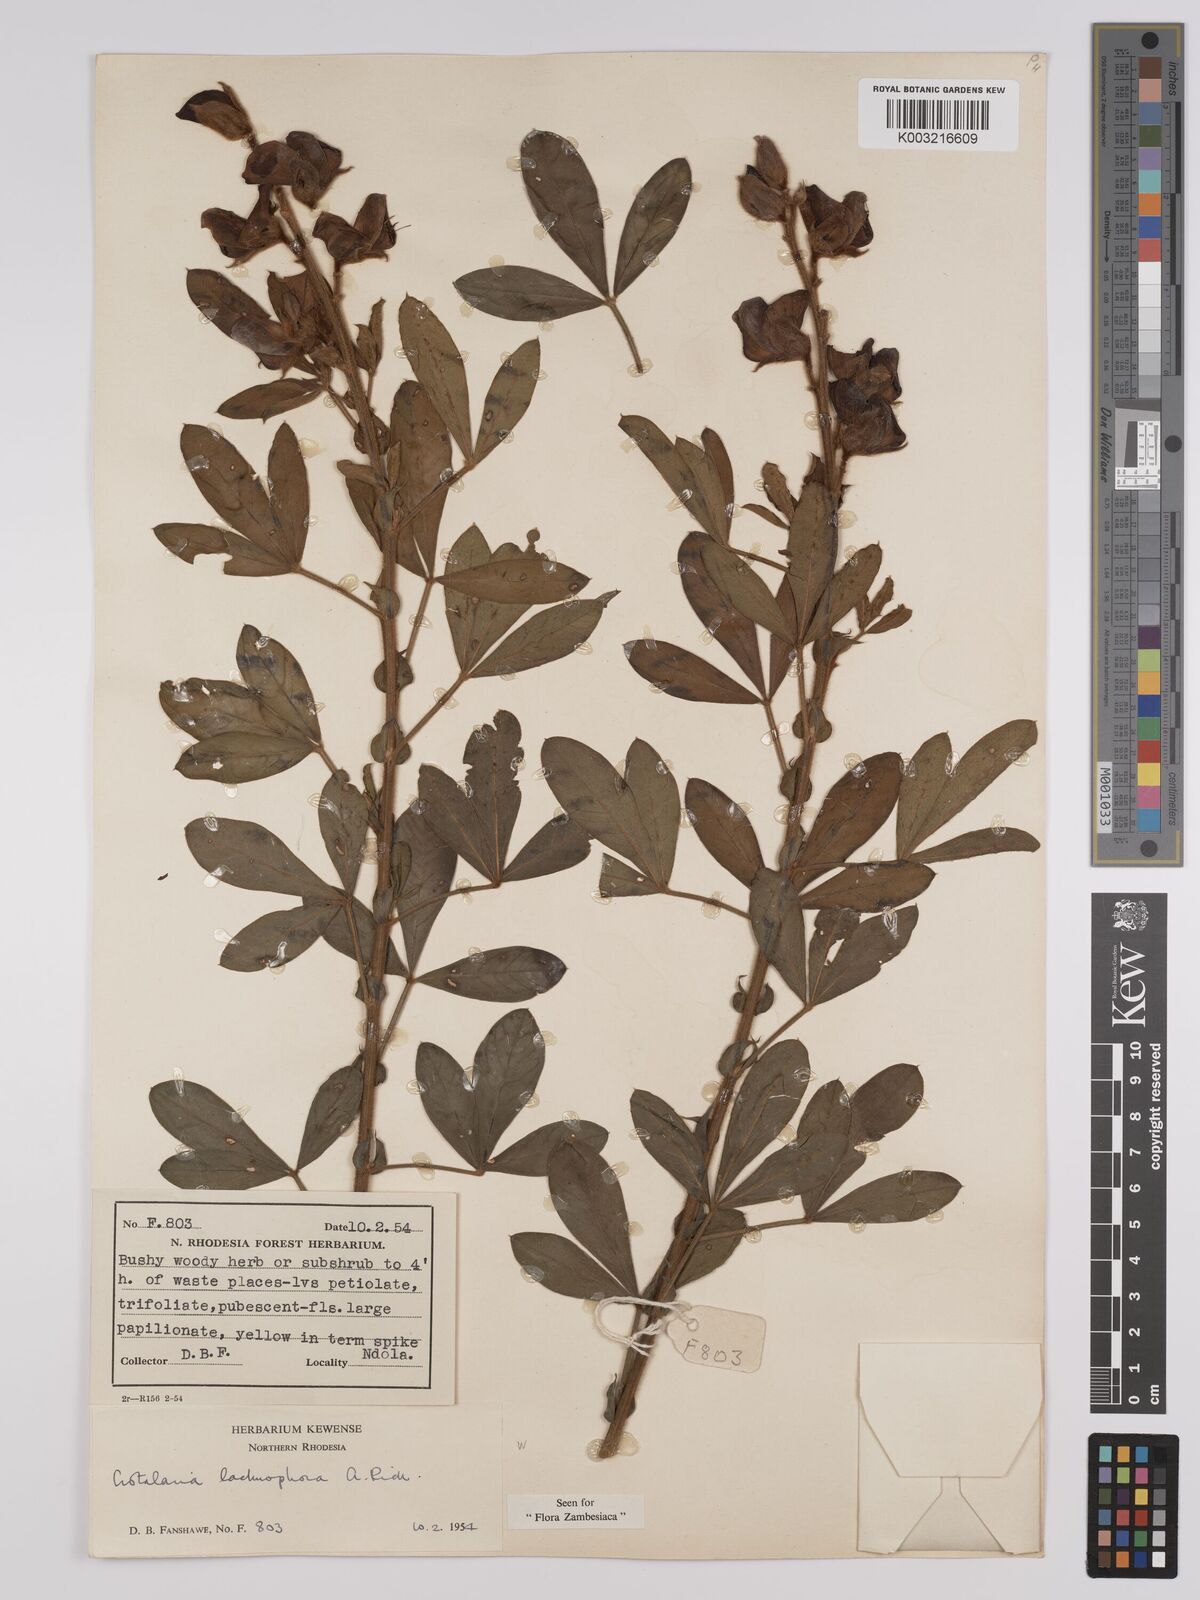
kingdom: Plantae
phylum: Tracheophyta
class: Magnoliopsida
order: Fabales
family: Fabaceae
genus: Crotalaria
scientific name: Crotalaria lachnophora
